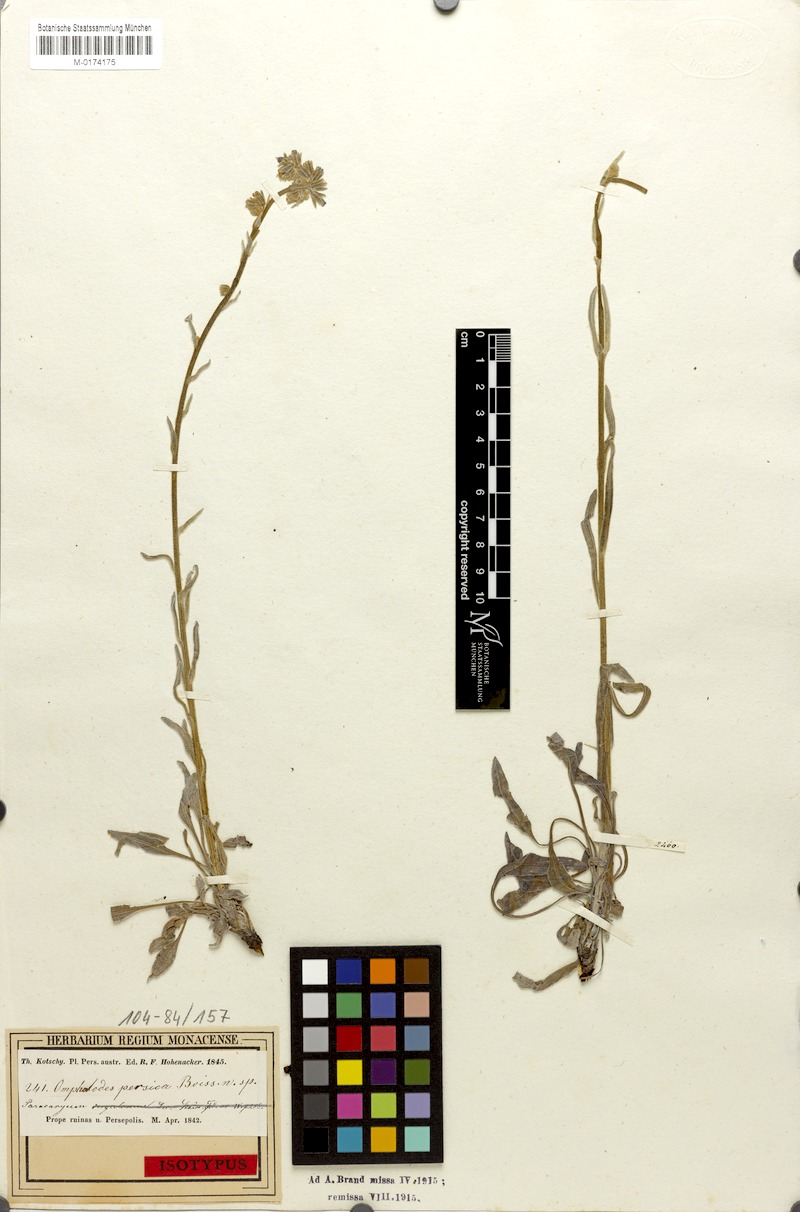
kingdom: Plantae
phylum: Tracheophyta
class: Magnoliopsida
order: Boraginales
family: Boraginaceae
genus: Paracaryum
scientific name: Paracaryum persicum
